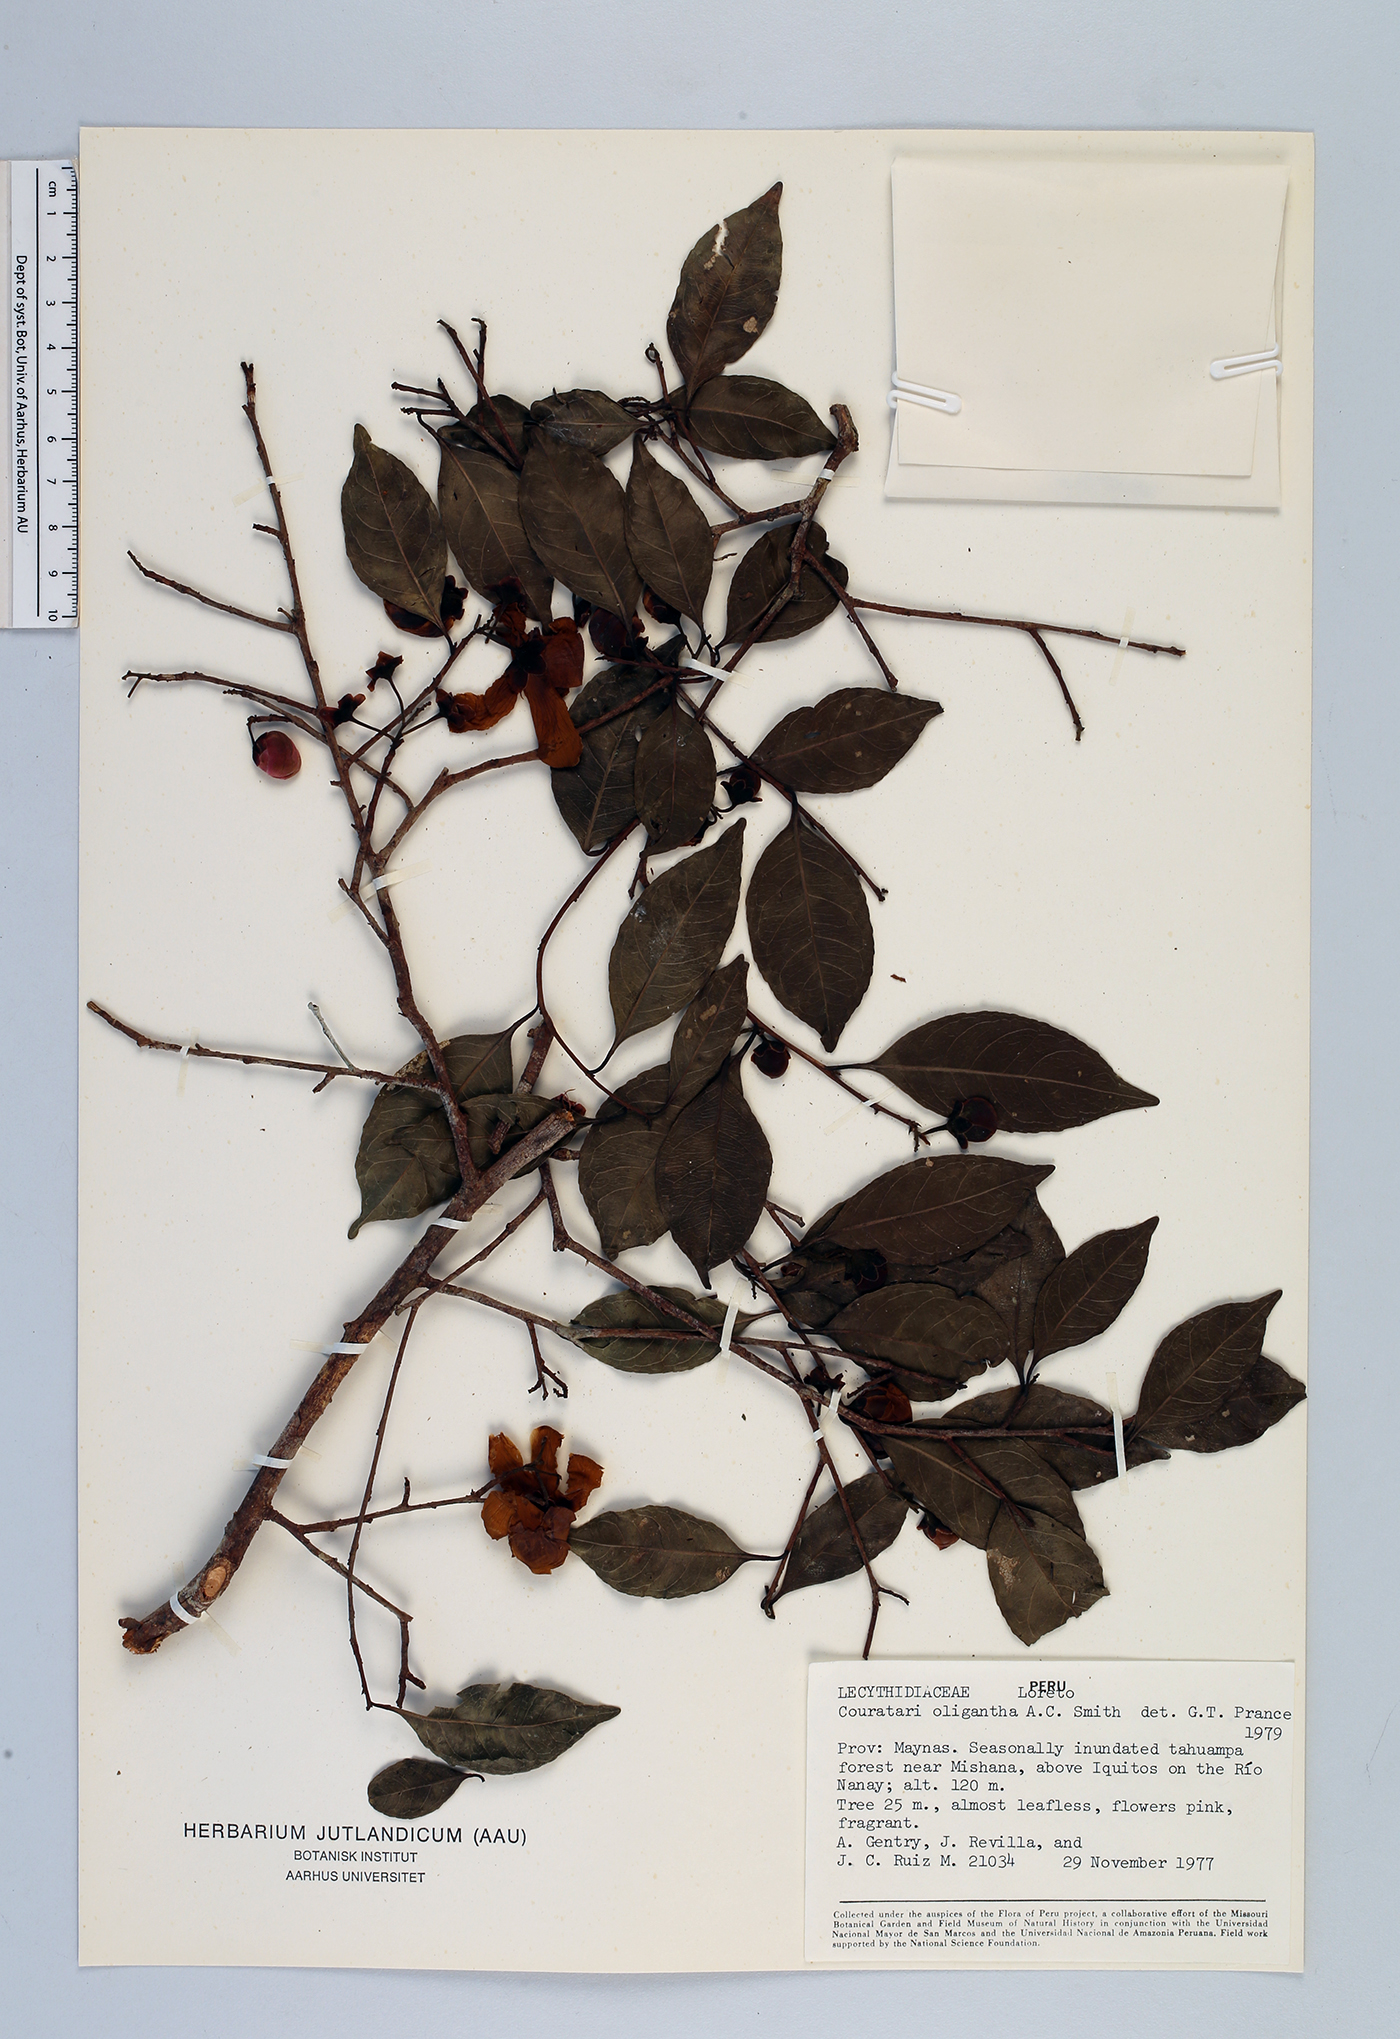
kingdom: Plantae
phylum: Tracheophyta
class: Magnoliopsida
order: Ericales
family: Lecythidaceae
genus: Couratari
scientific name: Couratari oligantha
